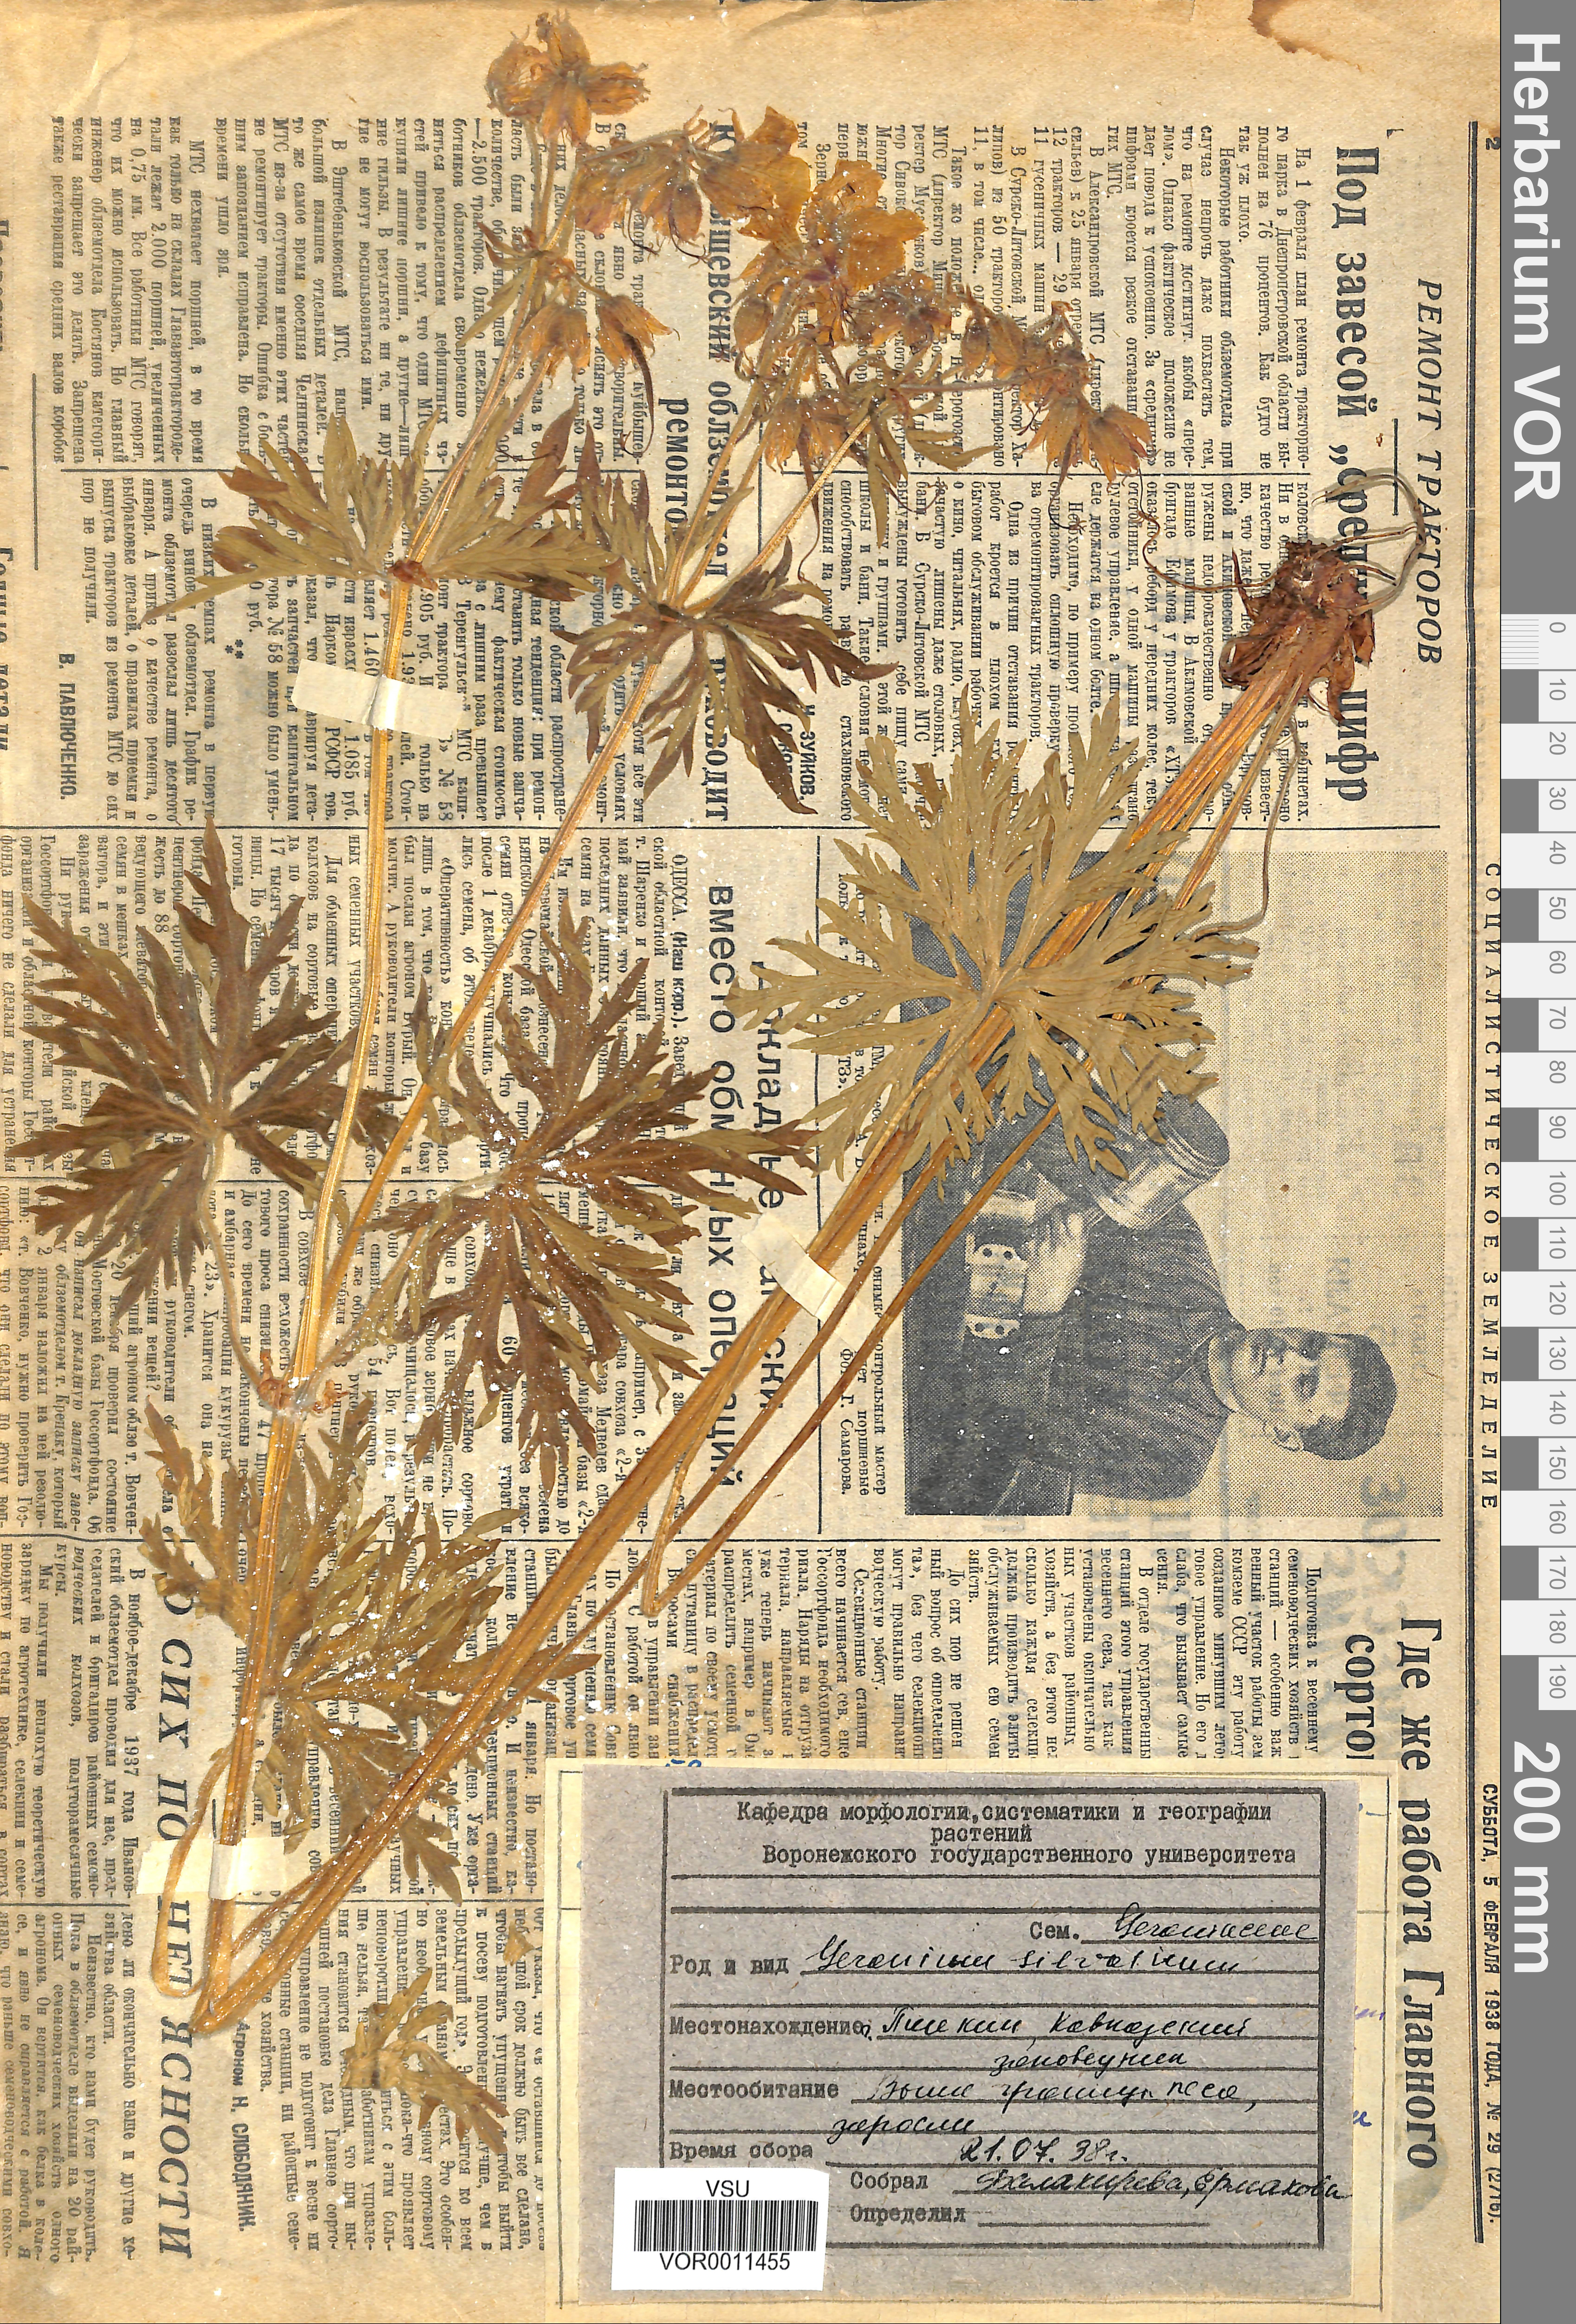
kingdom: Plantae
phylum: Tracheophyta
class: Magnoliopsida
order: Geraniales
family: Geraniaceae
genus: Geranium
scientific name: Geranium sibiricum
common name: Siberian crane's-bill
